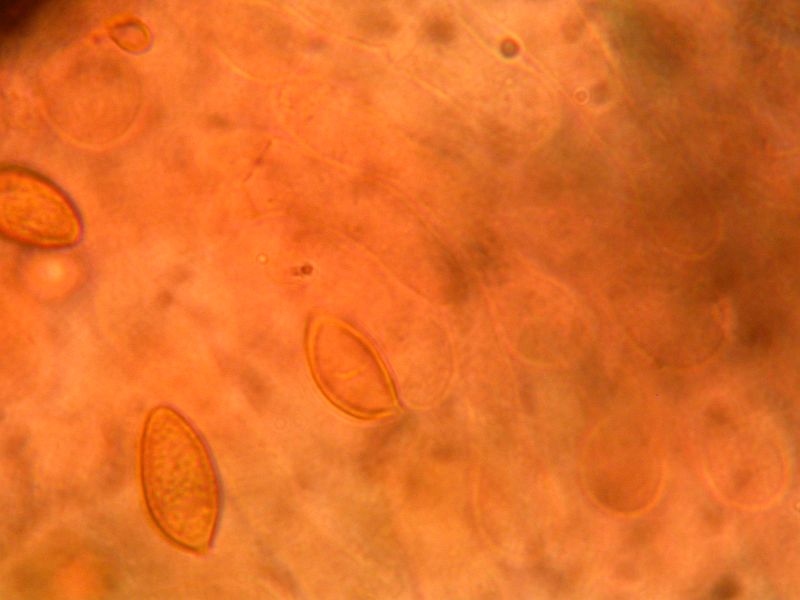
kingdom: Fungi
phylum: Basidiomycota
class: Agaricomycetes
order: Agaricales
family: Hymenogastraceae
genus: Hebeloma
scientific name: Hebeloma helodes
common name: rank tåreblad
